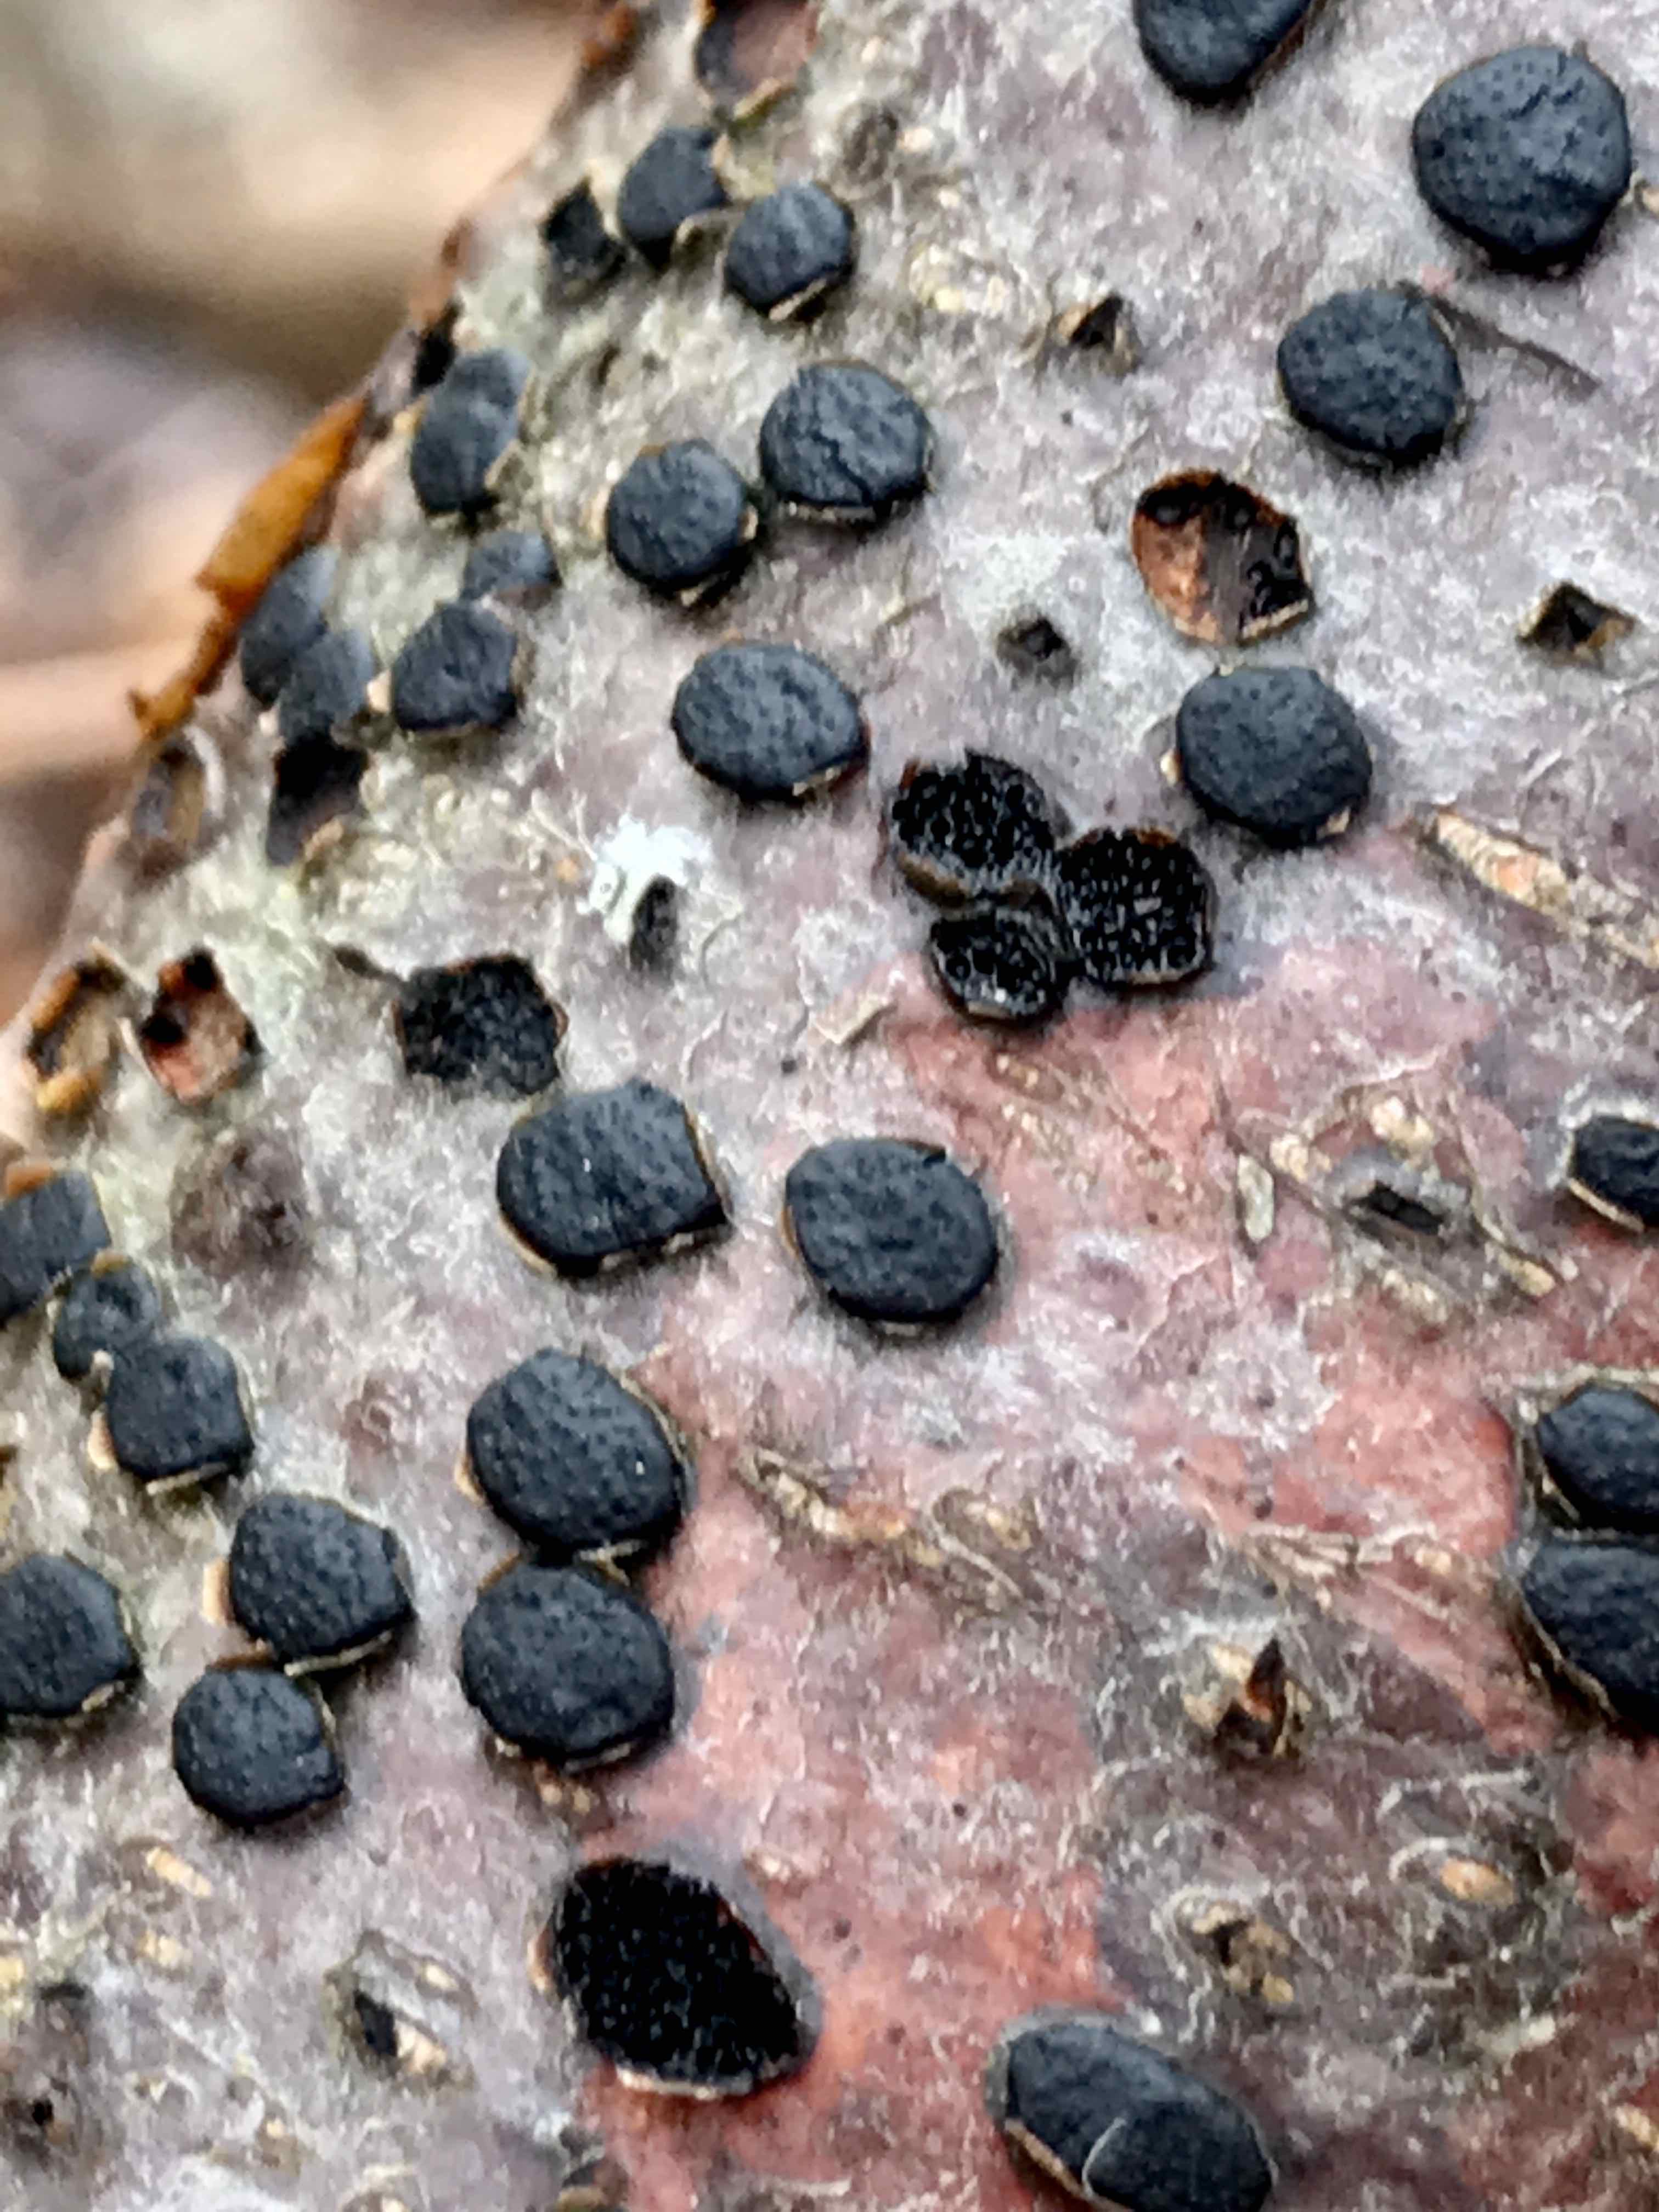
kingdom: Fungi
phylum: Ascomycota
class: Sordariomycetes
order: Xylariales
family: Diatrypaceae
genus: Diatrype
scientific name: Diatrype disciformis
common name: kant-kulskorpe
